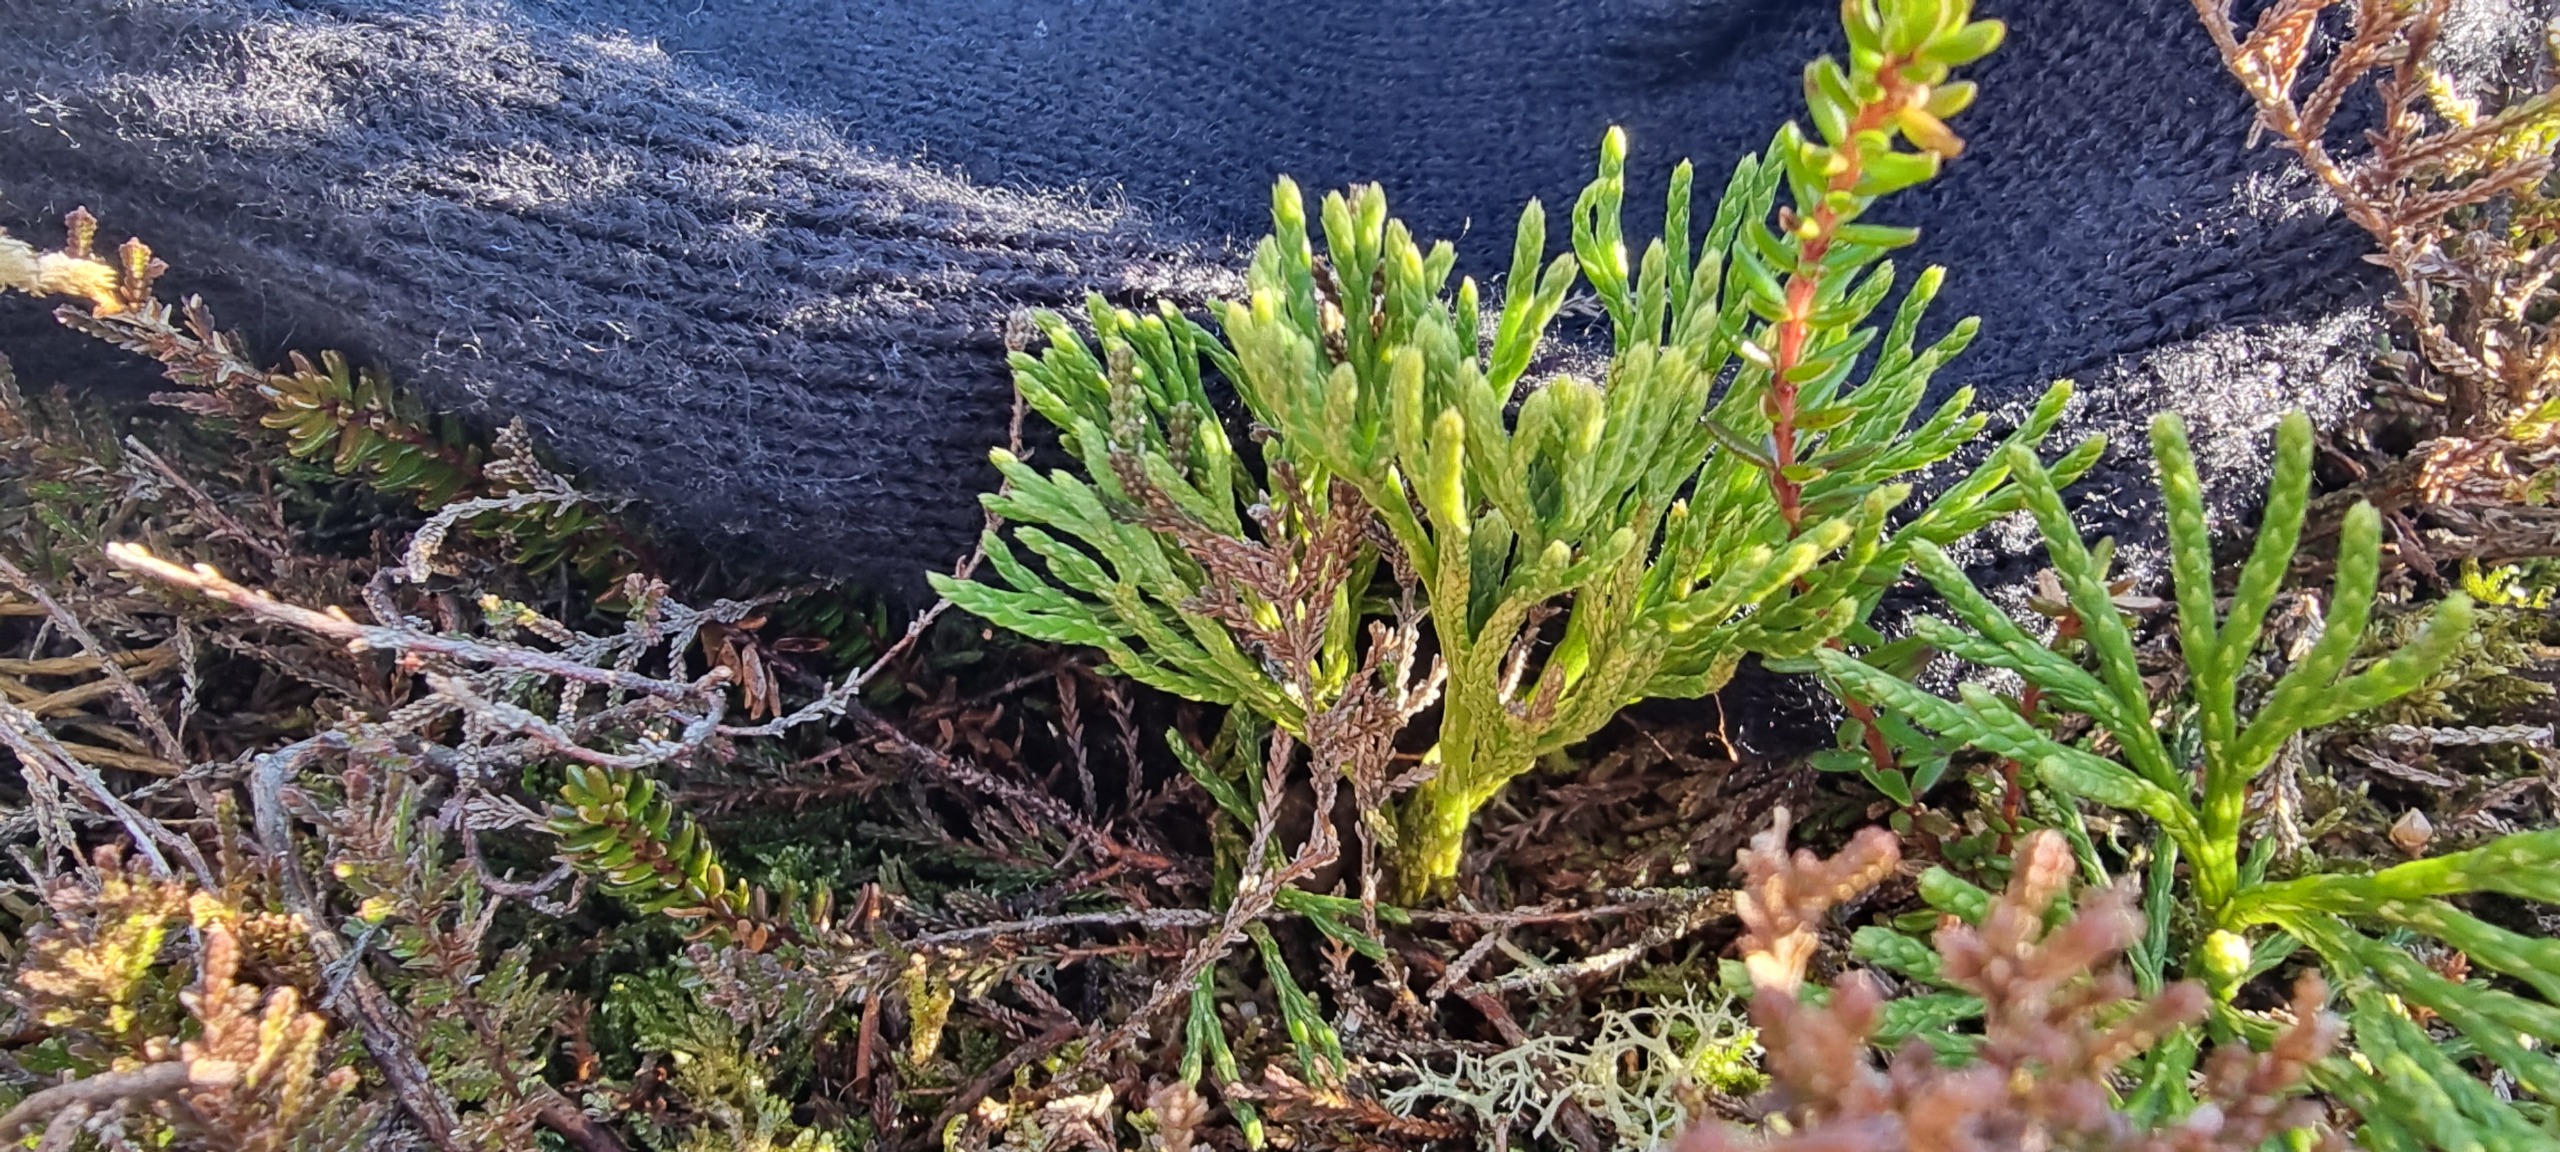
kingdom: Plantae
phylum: Tracheophyta
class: Lycopodiopsida
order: Lycopodiales
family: Lycopodiaceae
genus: Diphasiastrum
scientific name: Diphasiastrum tristachyum
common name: Flad ulvefod × cypres-ulvefod
